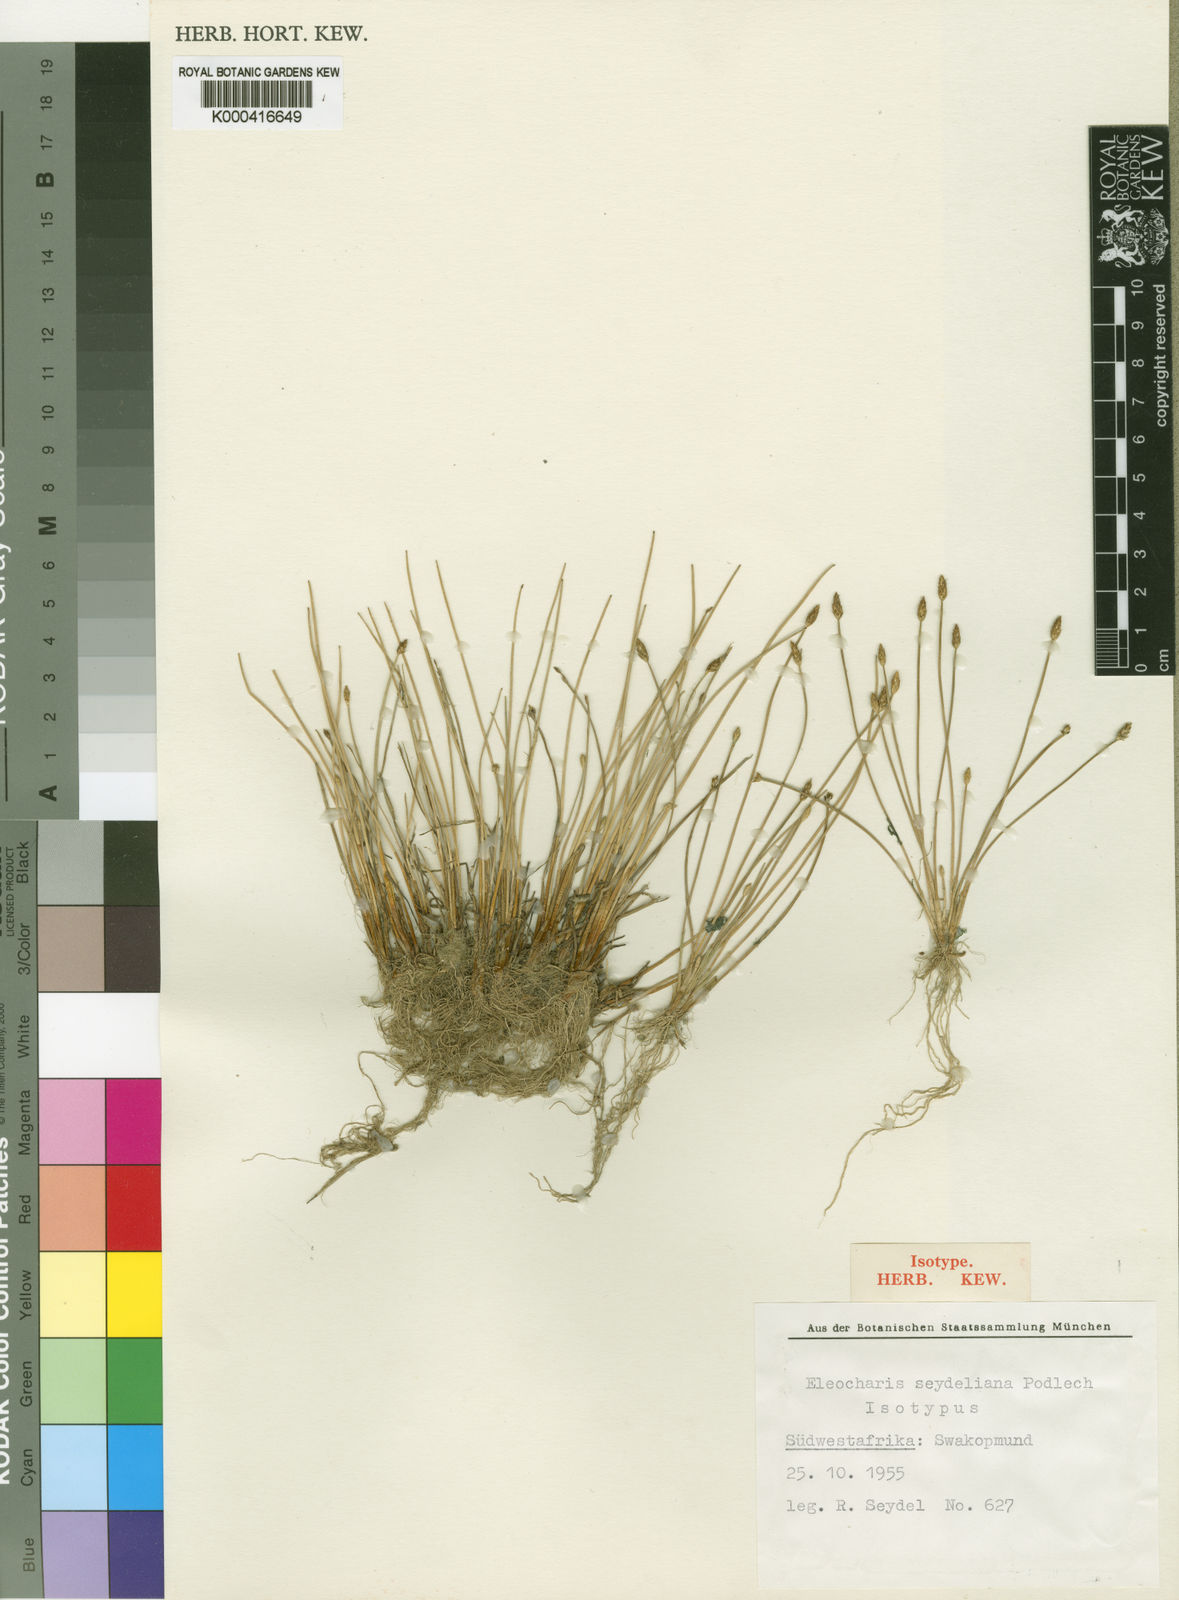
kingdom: Plantae
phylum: Tracheophyta
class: Liliopsida
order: Poales
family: Cyperaceae
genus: Eleocharis
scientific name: Eleocharis schlechteri
